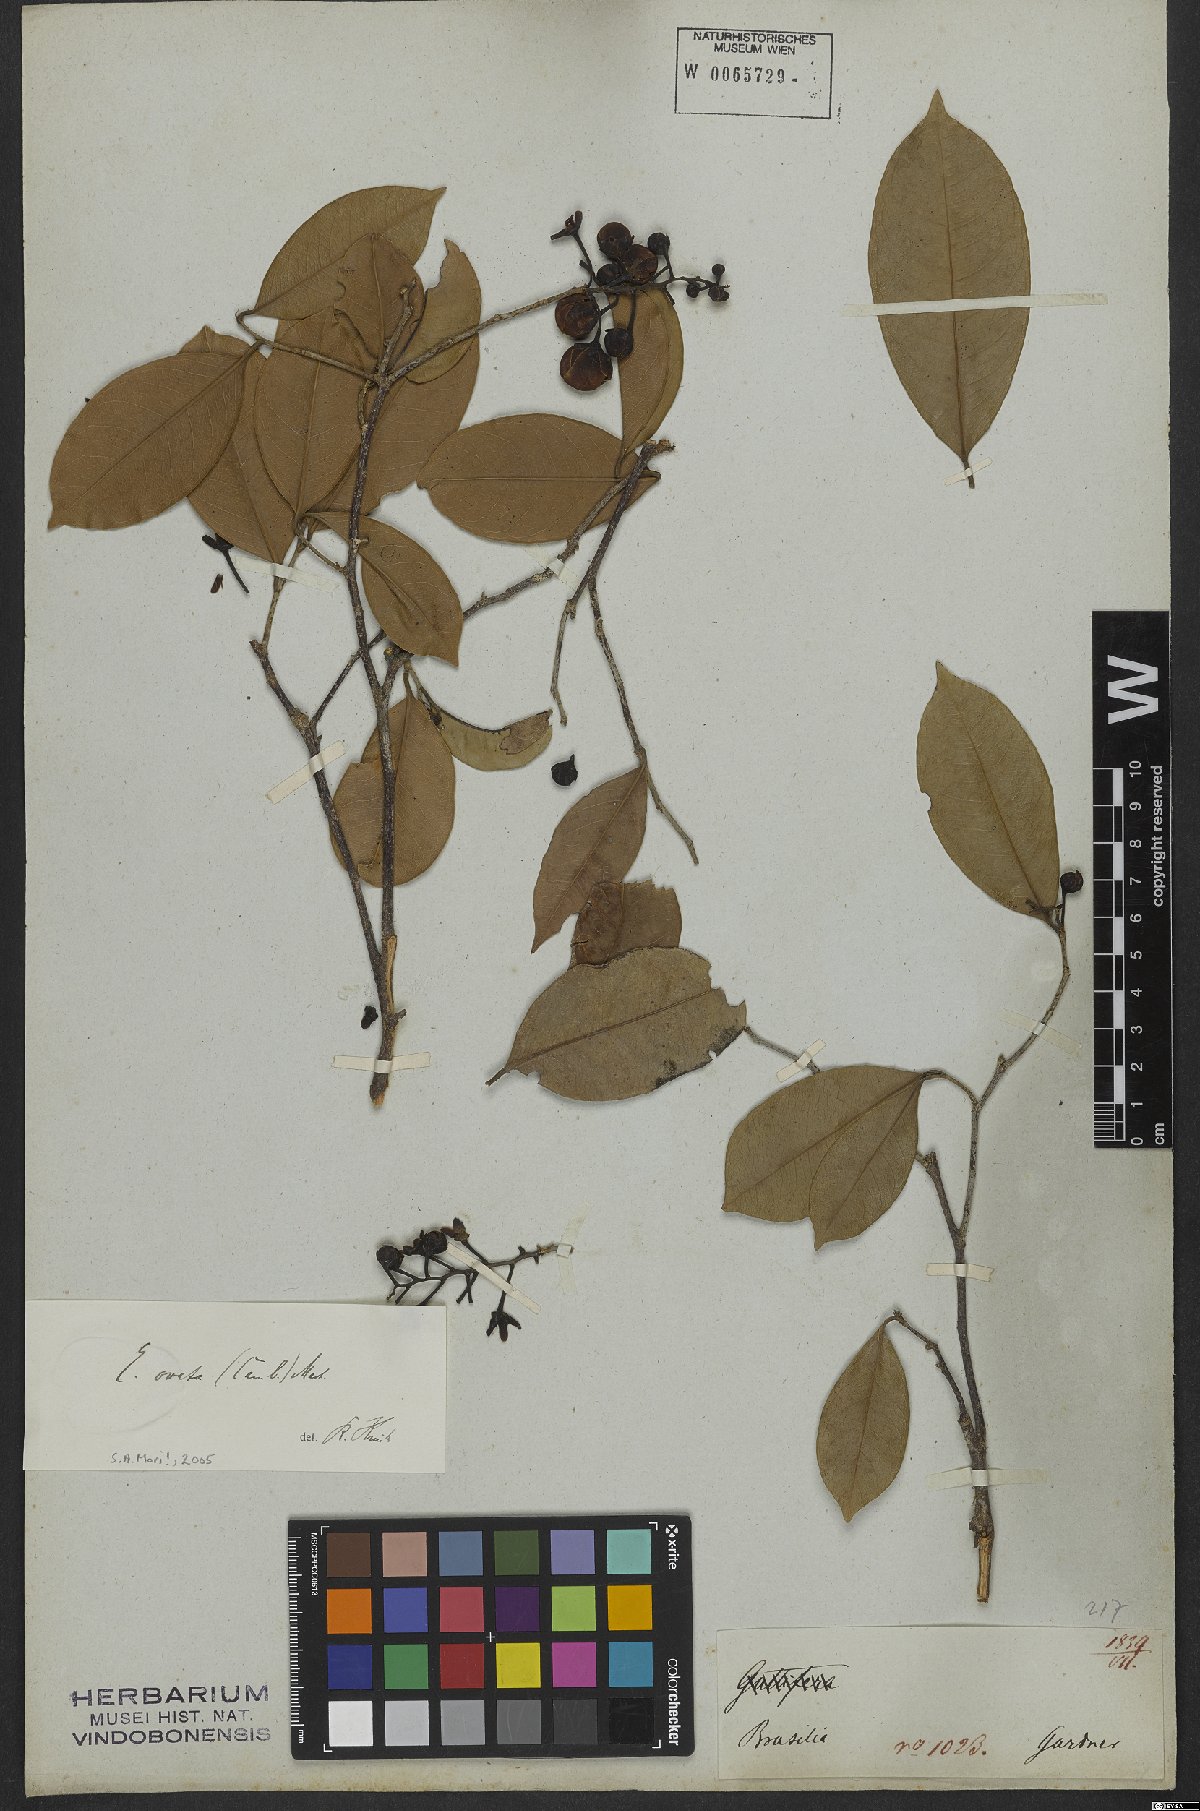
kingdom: Plantae
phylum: Tracheophyta
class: Magnoliopsida
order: Ericales
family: Lecythidaceae
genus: Eschweilera
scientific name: Eschweilera ovata
